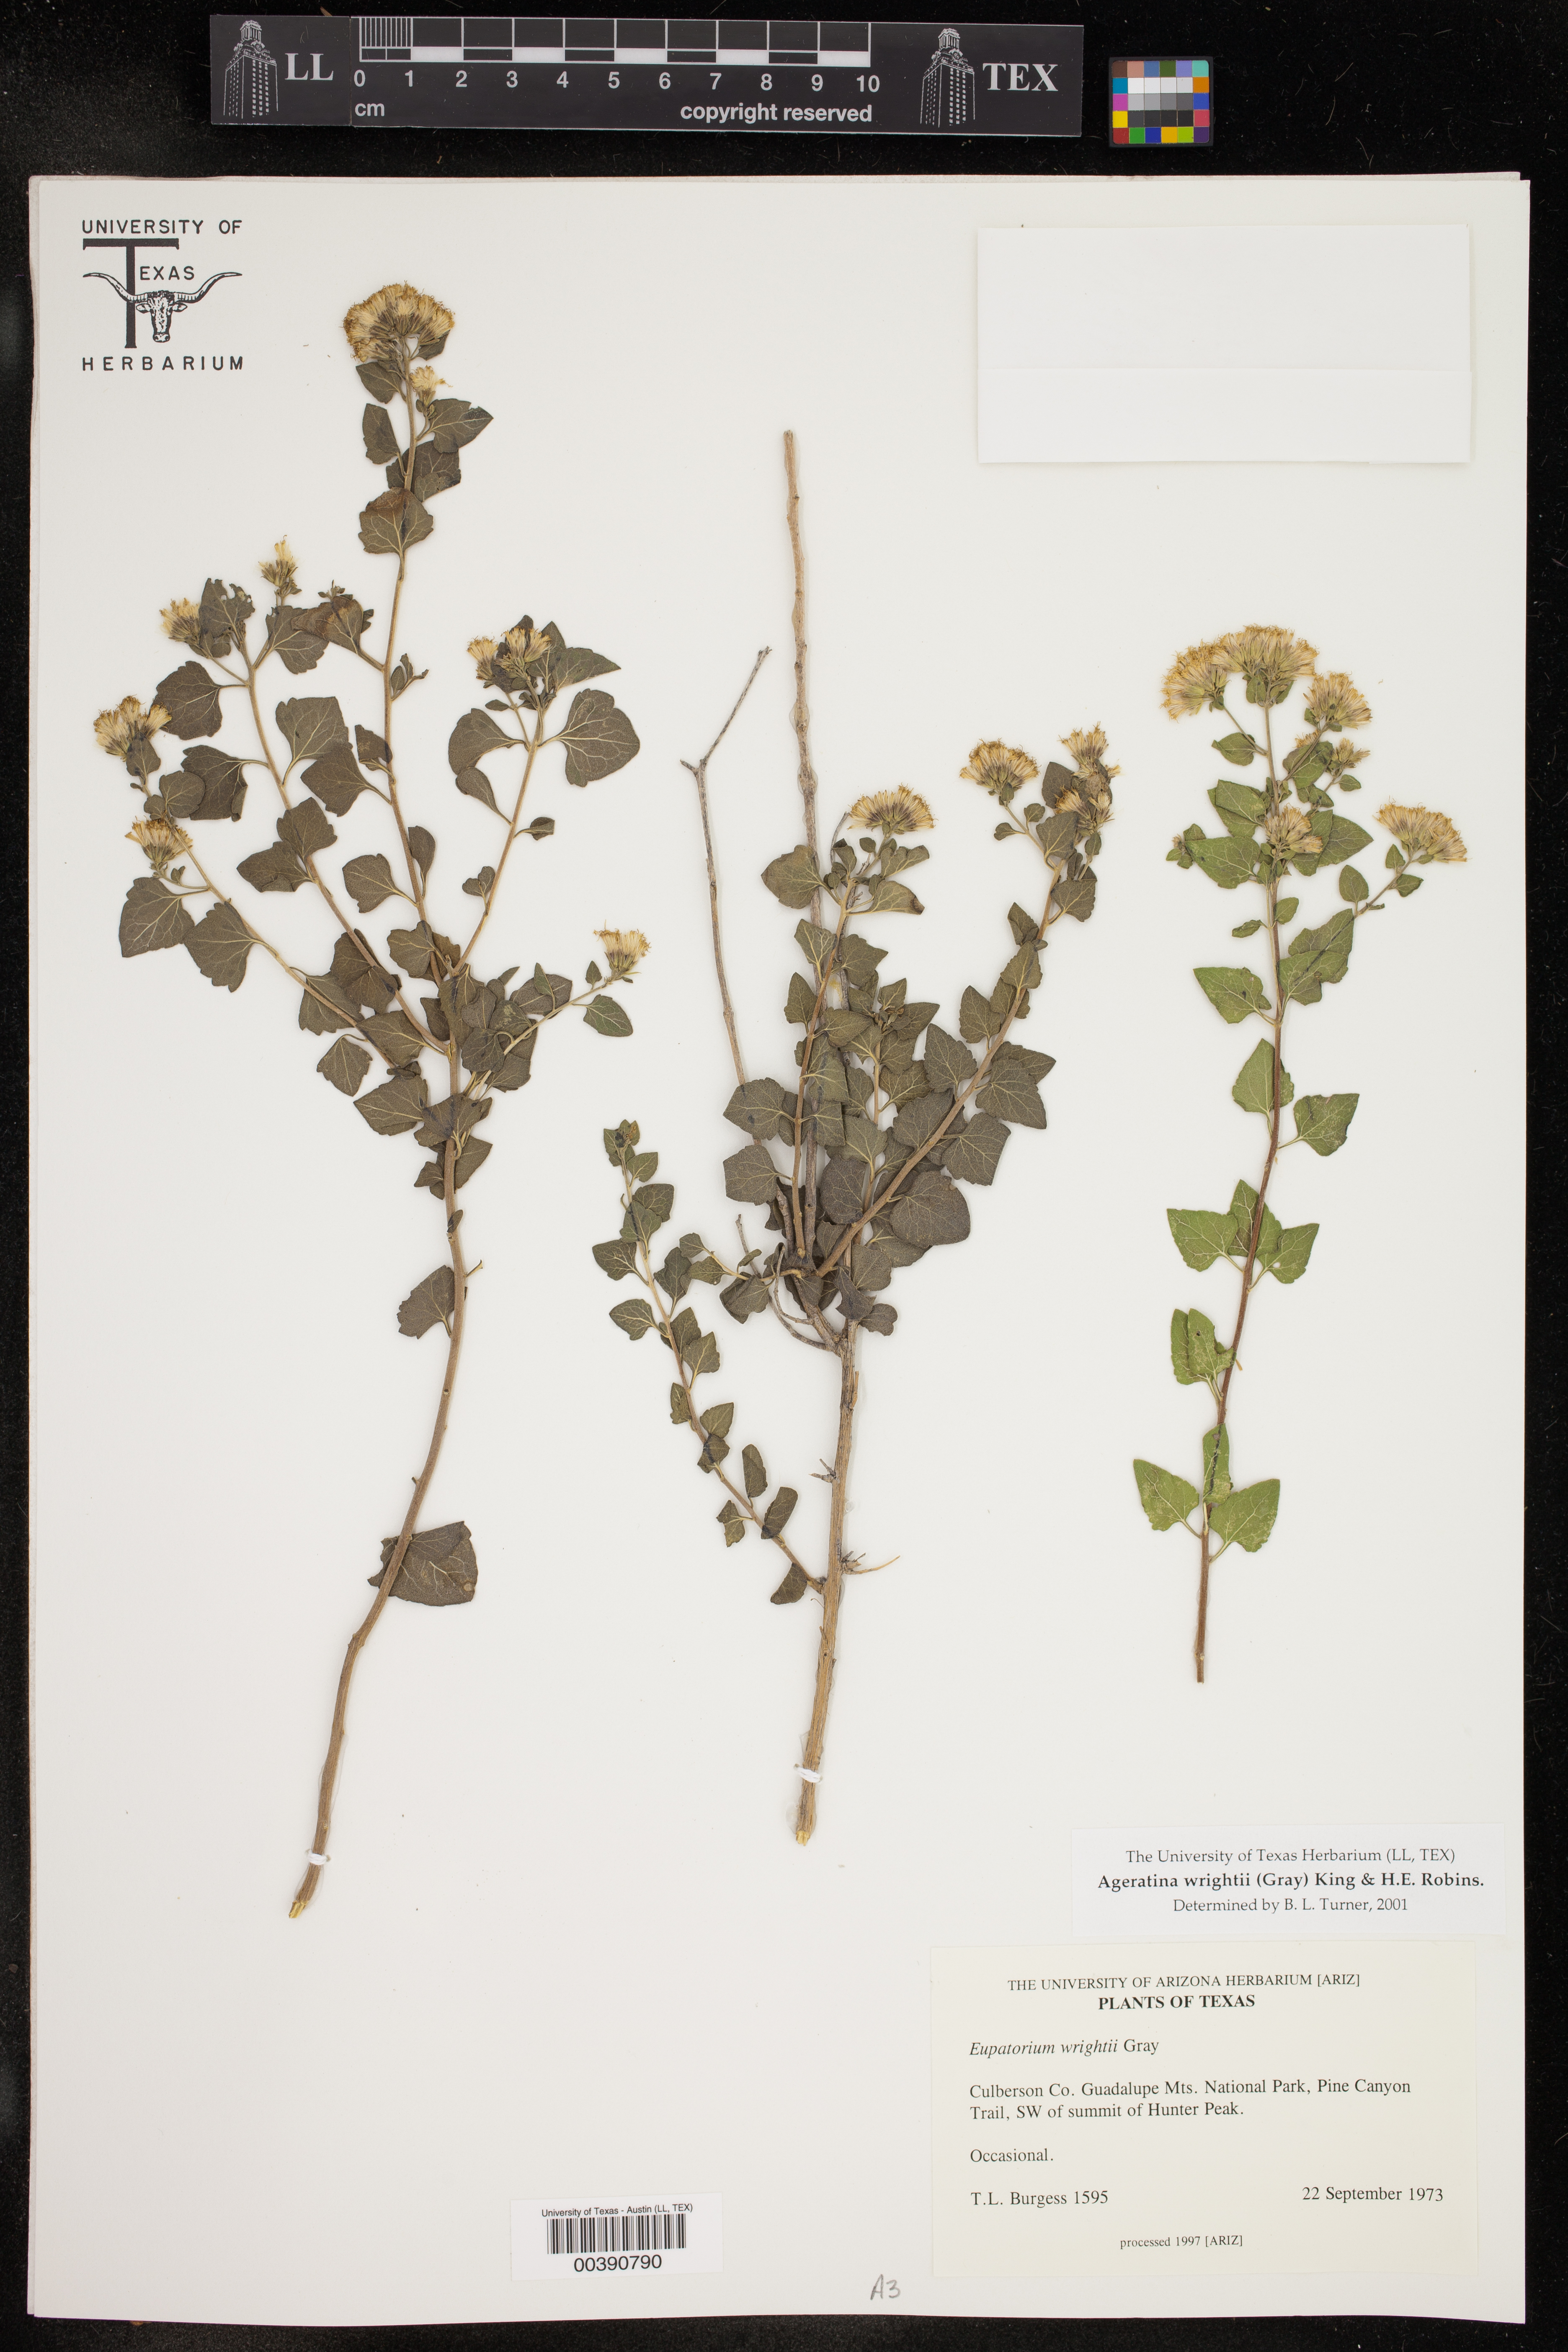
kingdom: Plantae
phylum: Tracheophyta
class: Magnoliopsida
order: Asterales
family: Asteraceae
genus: Ageratina
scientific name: Ageratina wrightii
